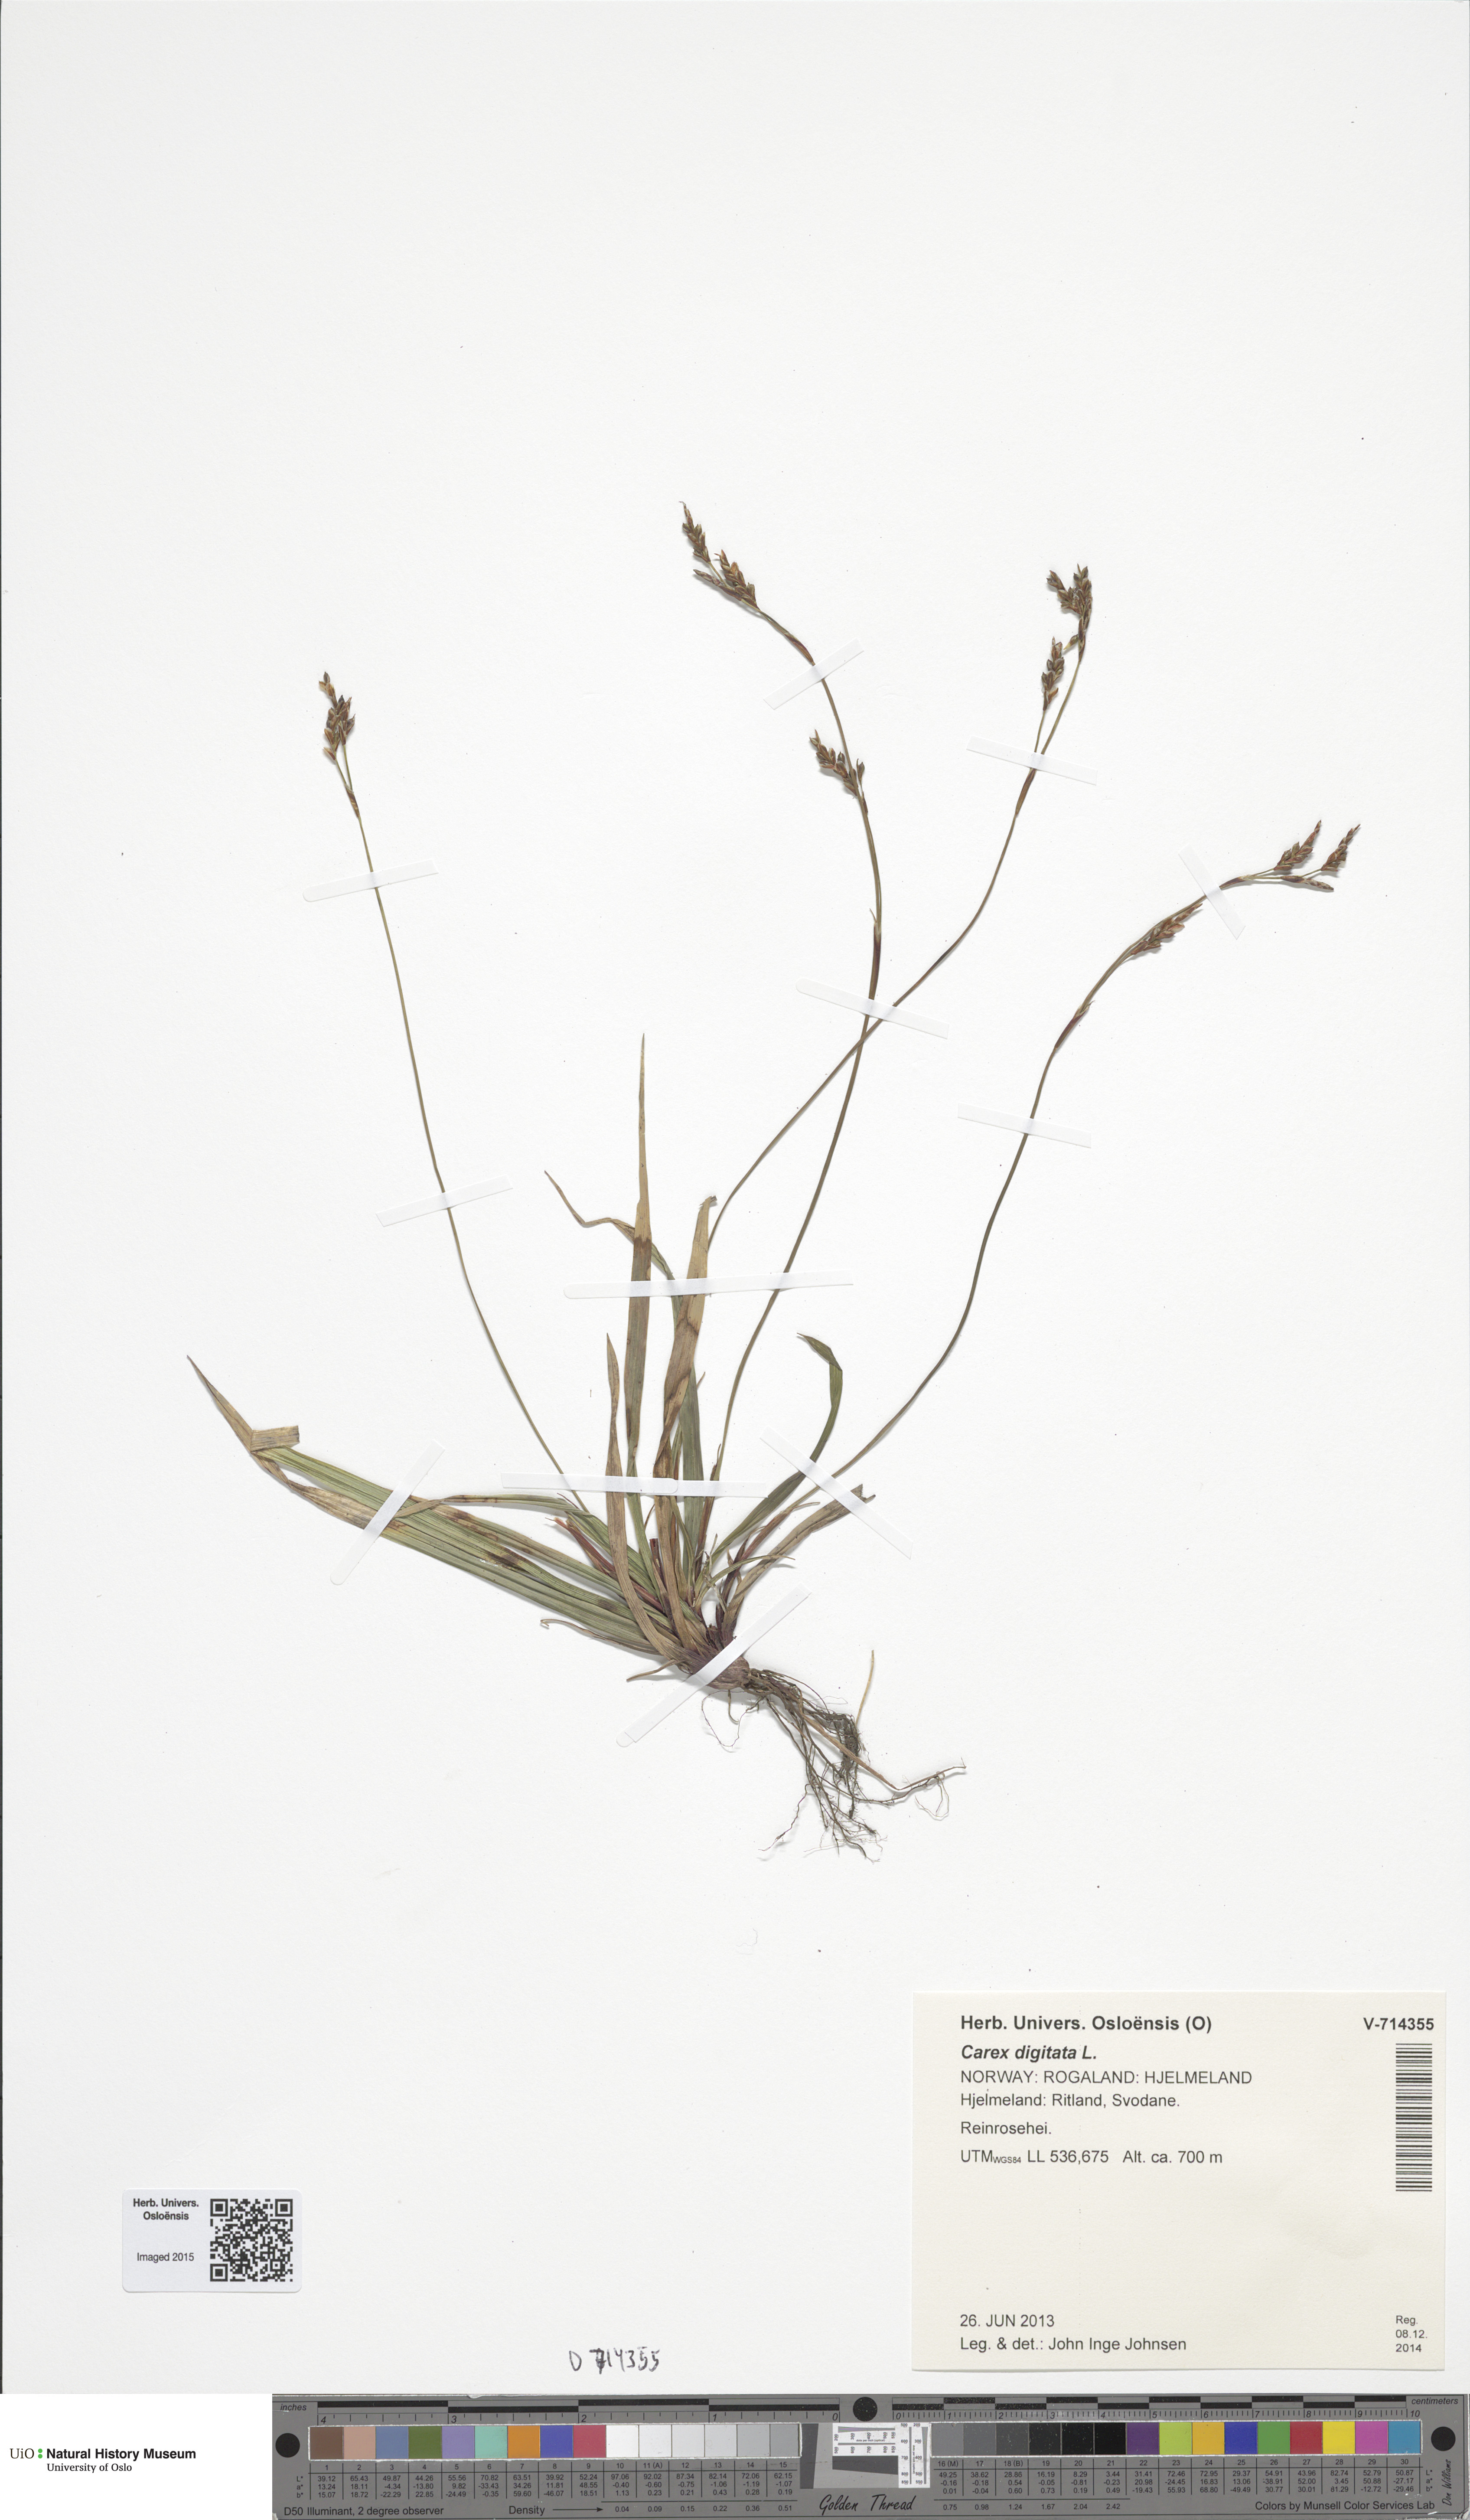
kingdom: Plantae
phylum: Tracheophyta
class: Liliopsida
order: Poales
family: Cyperaceae
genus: Carex
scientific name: Carex digitata
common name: Fingered sedge
